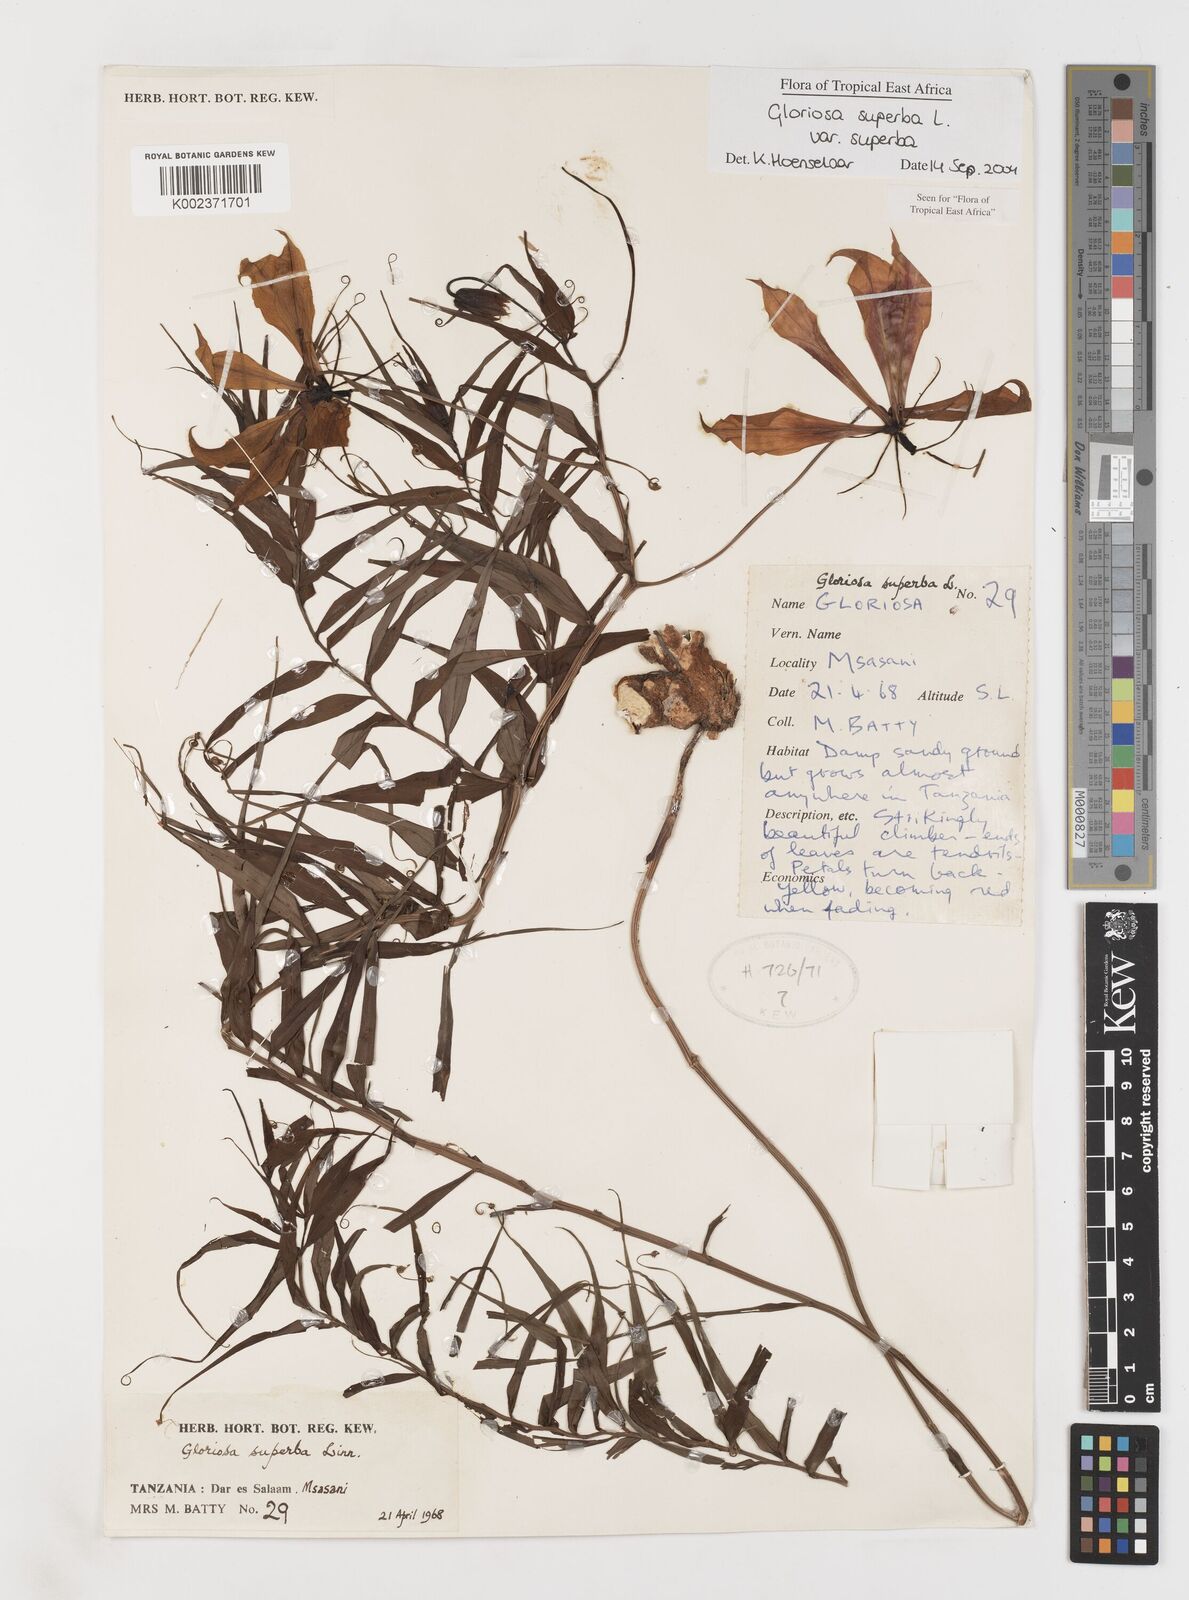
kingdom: Plantae
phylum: Tracheophyta
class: Liliopsida
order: Liliales
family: Colchicaceae
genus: Gloriosa
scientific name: Gloriosa simplex
